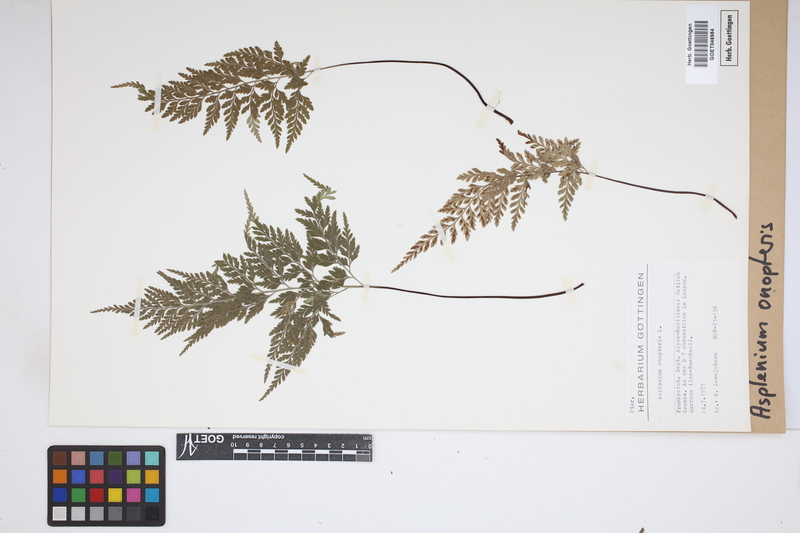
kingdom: Plantae
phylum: Tracheophyta
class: Polypodiopsida
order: Polypodiales
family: Aspleniaceae
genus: Asplenium
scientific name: Asplenium onopteris
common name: Irish spleenwort
